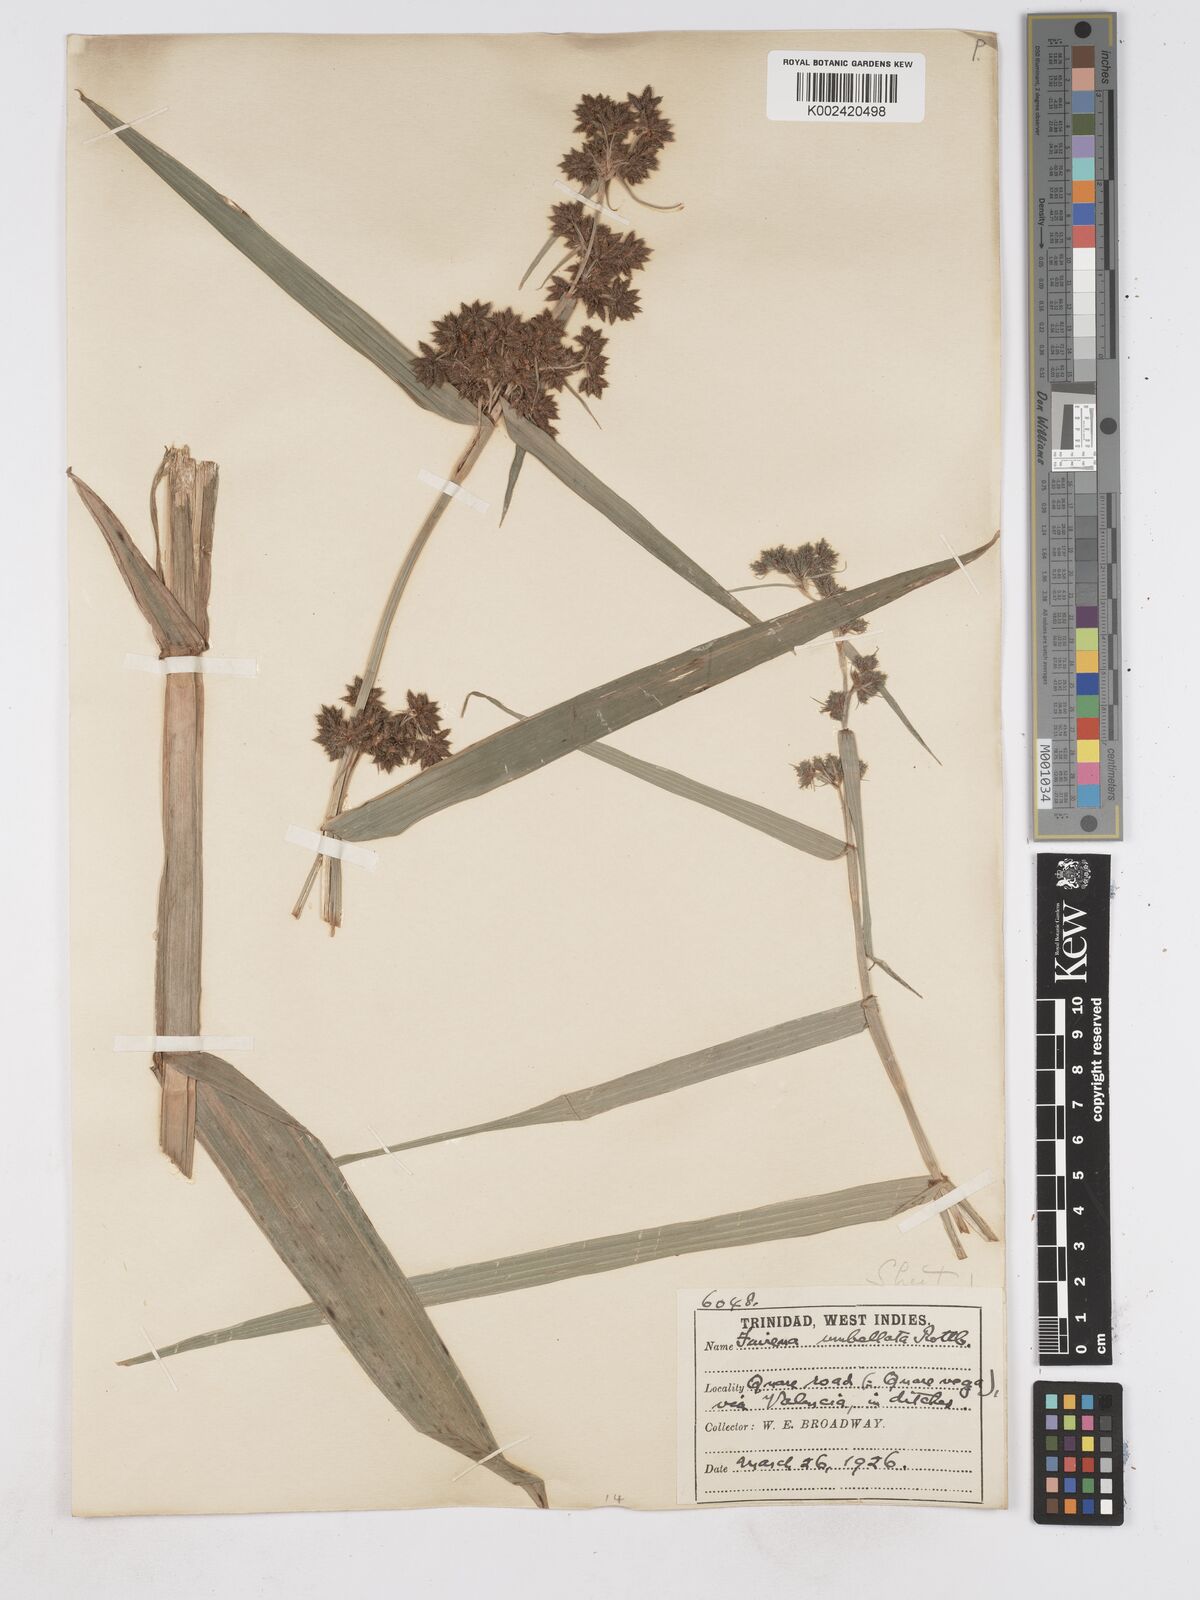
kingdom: Plantae
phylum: Tracheophyta
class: Liliopsida
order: Poales
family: Cyperaceae
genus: Fuirena
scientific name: Fuirena umbellata
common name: Yefen
